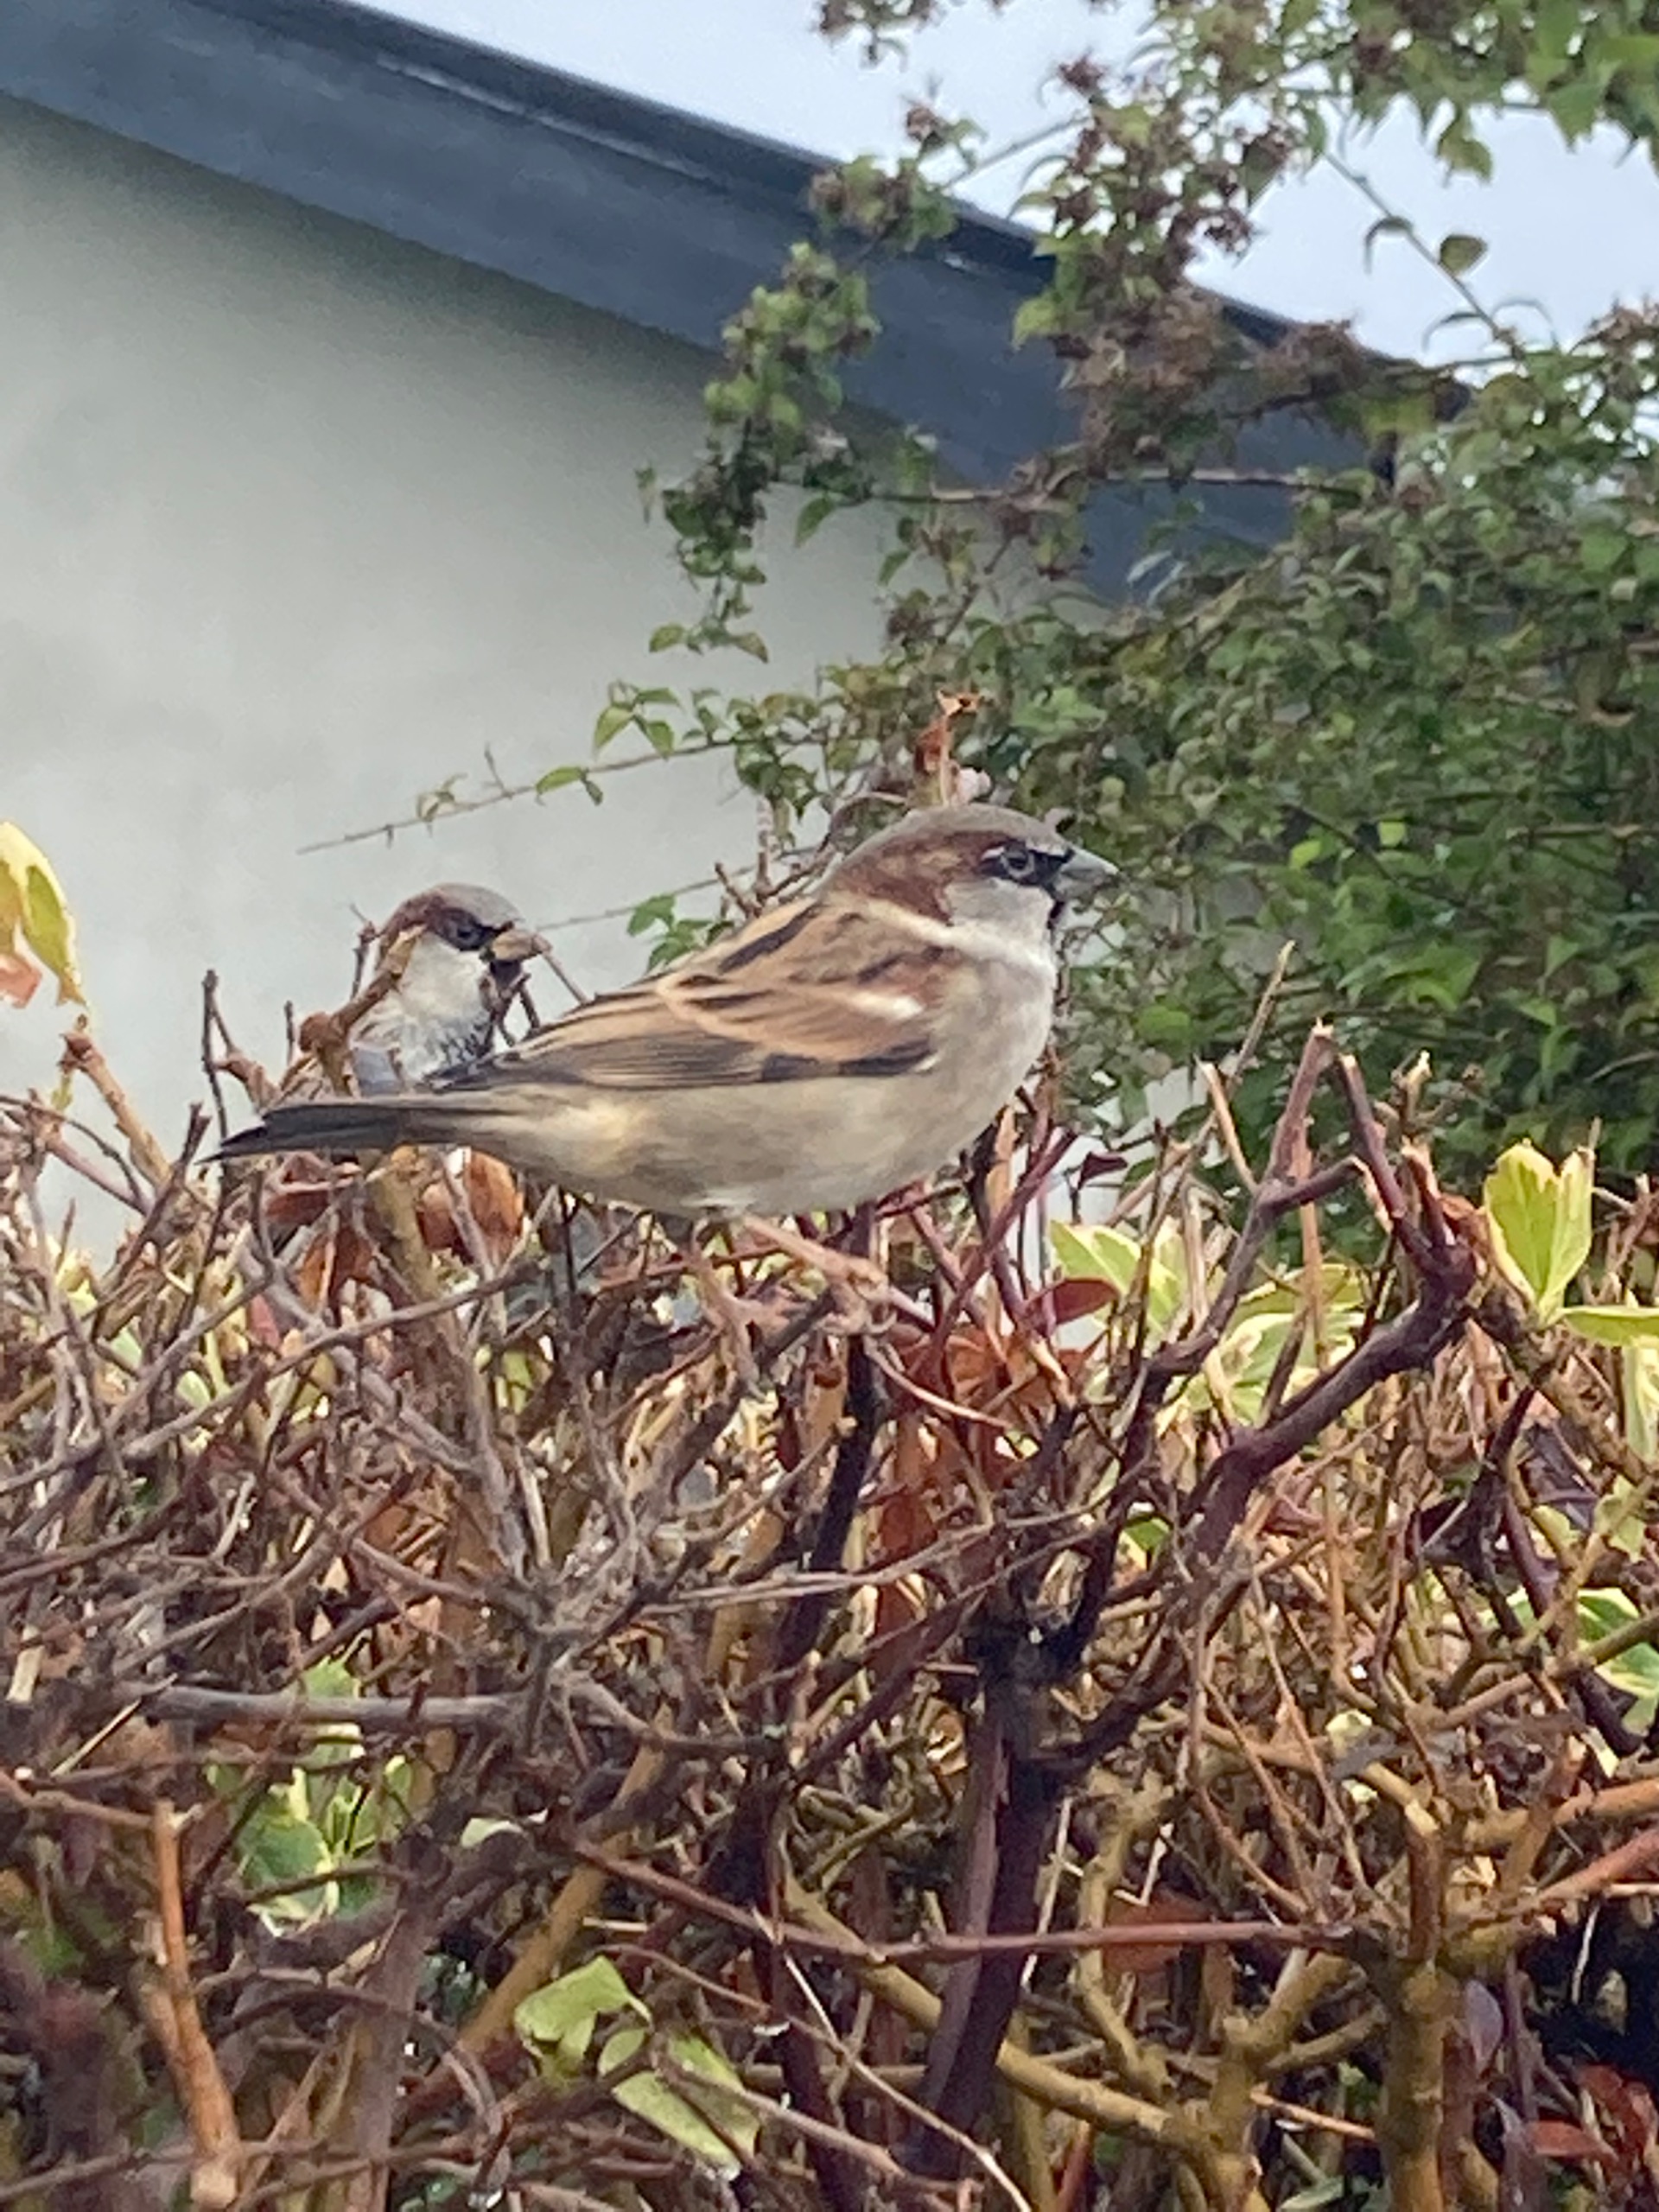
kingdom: Animalia
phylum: Chordata
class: Aves
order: Passeriformes
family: Passeridae
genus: Passer
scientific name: Passer domesticus
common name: Gråspurv
